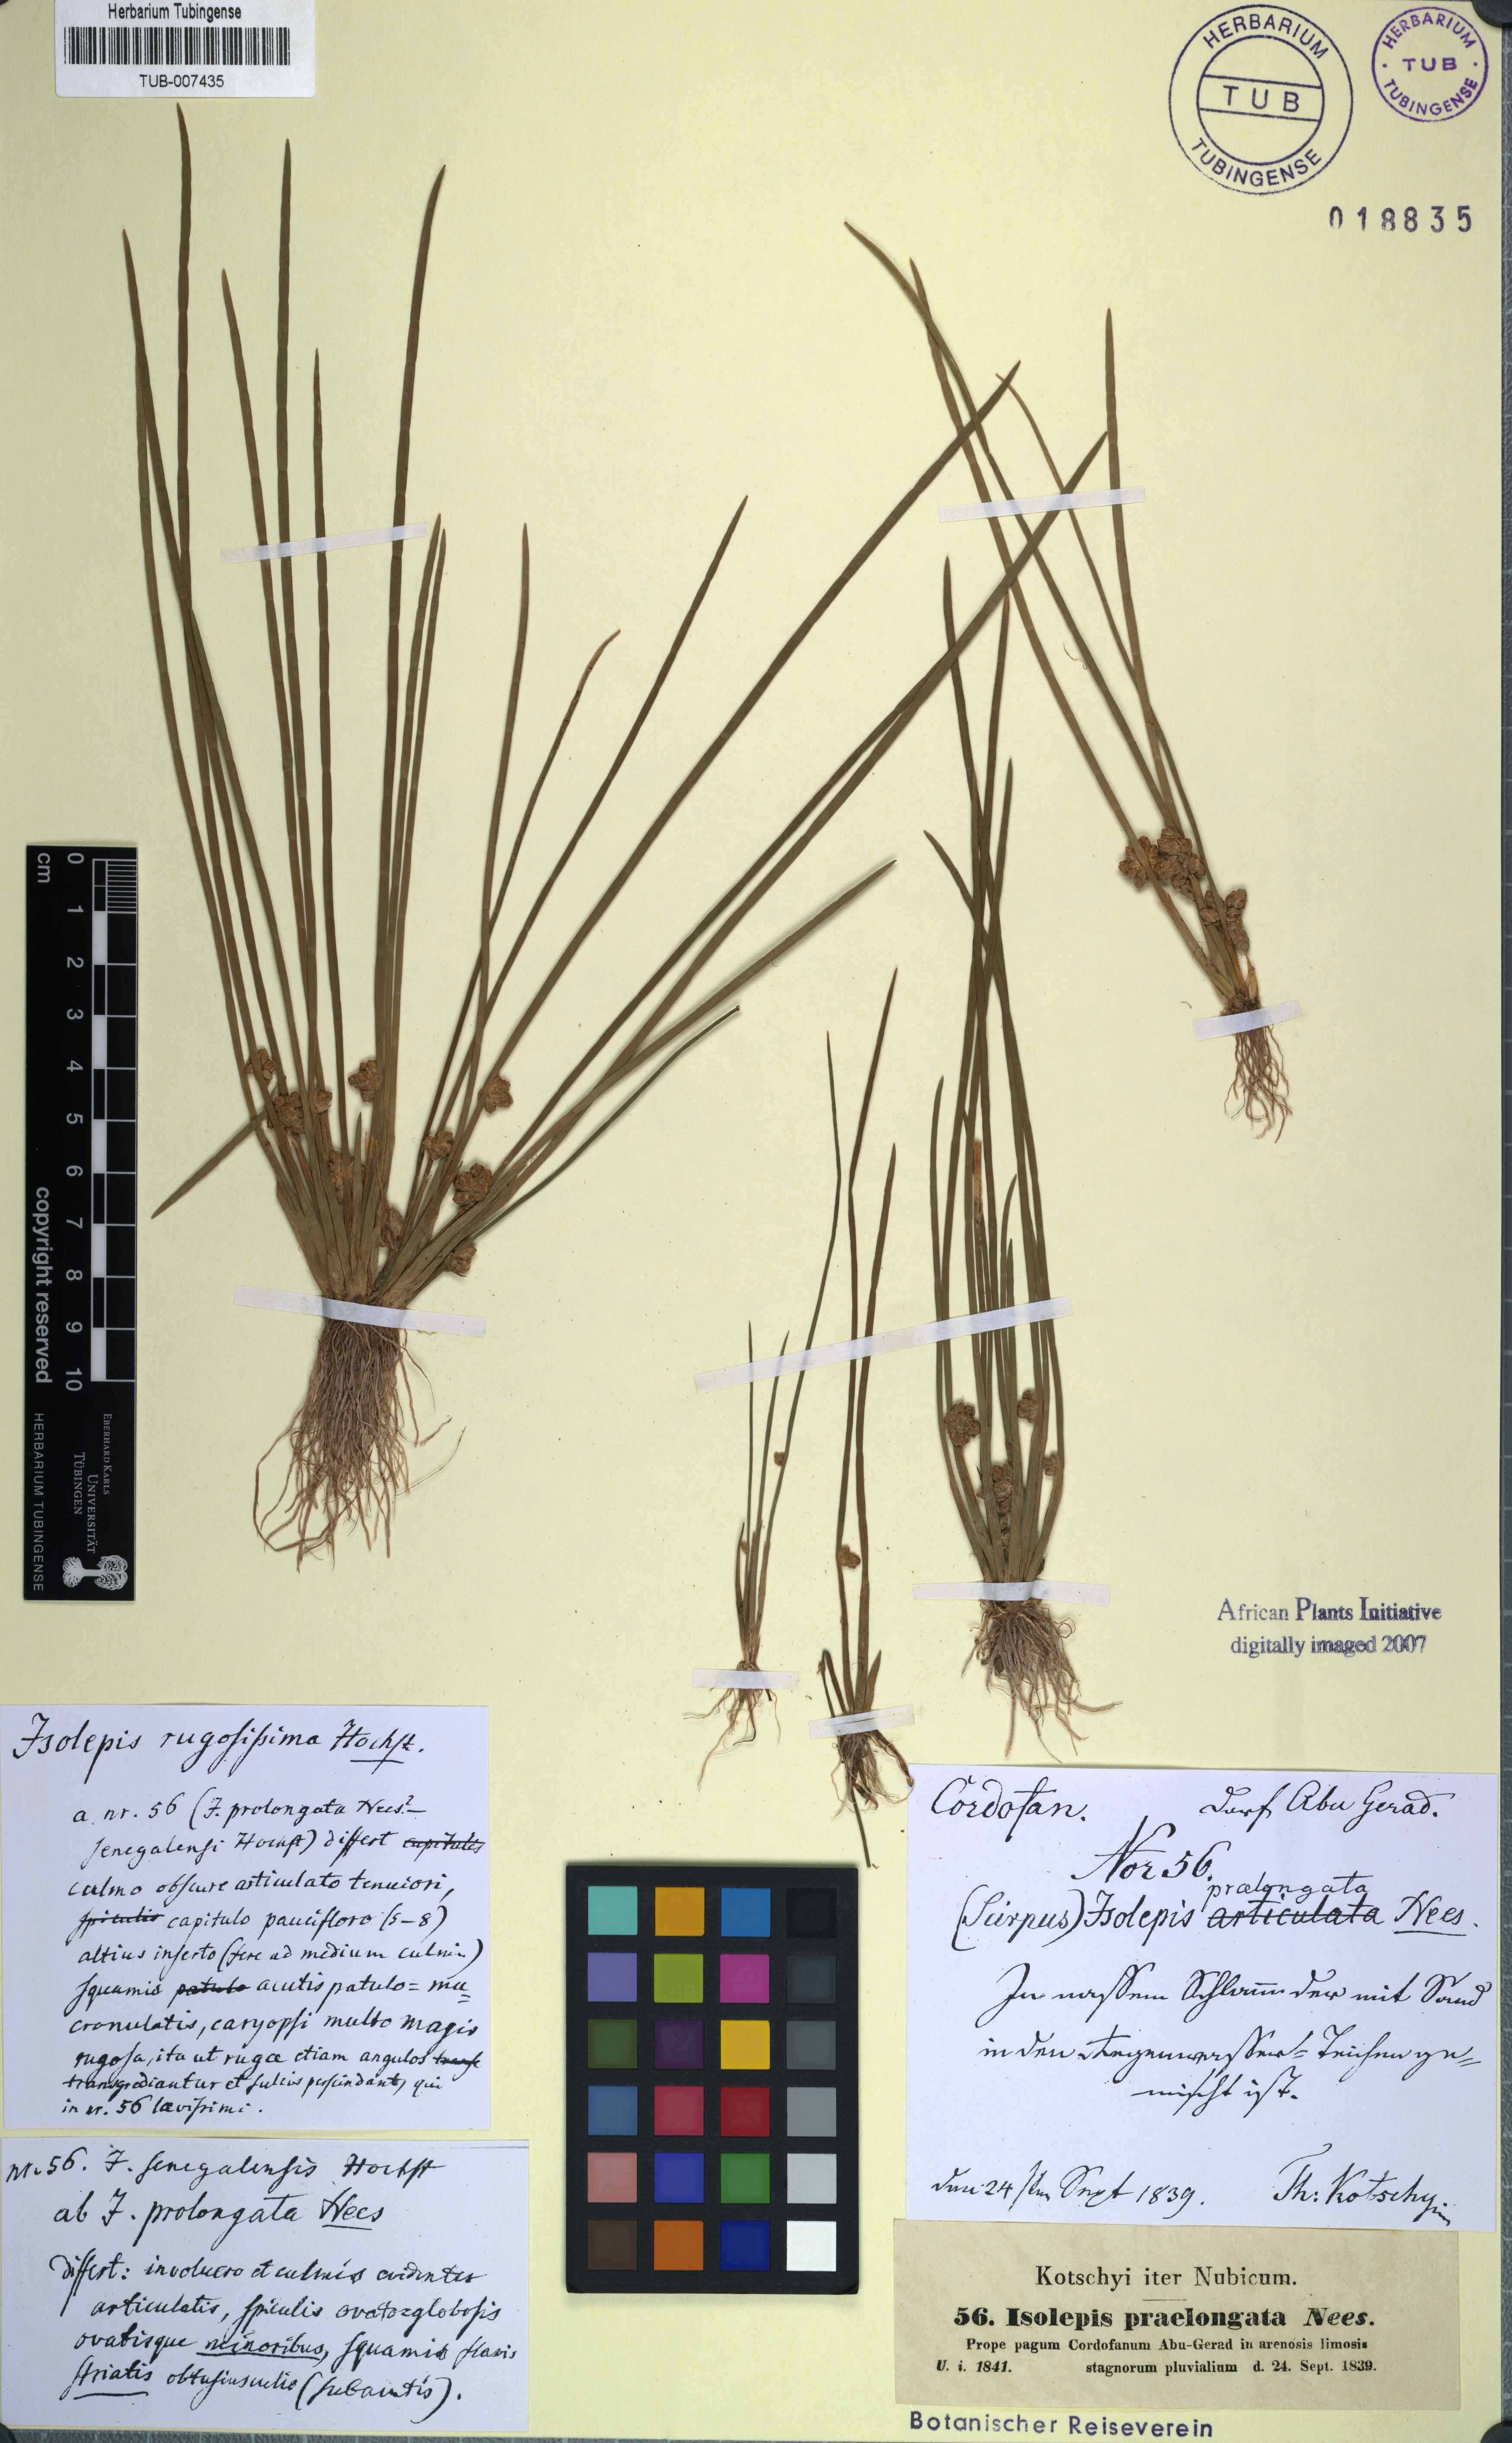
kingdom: Plantae
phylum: Tracheophyta
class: Liliopsida
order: Poales
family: Cyperaceae
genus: Schoenoplectiella
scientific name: Schoenoplectiella articulata
